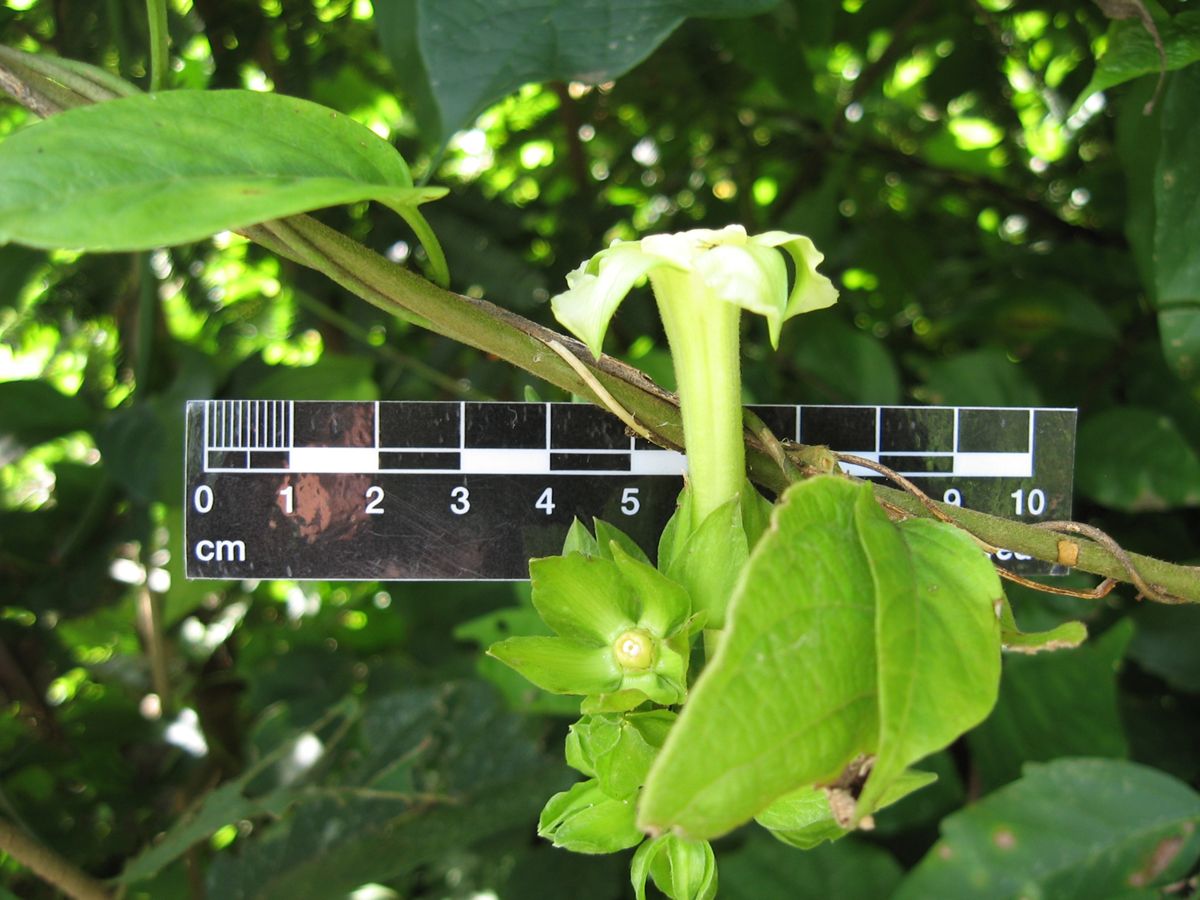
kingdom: Plantae
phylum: Tracheophyta
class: Magnoliopsida
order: Gentianales
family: Apocynaceae
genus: Prestonia
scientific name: Prestonia mexicana
